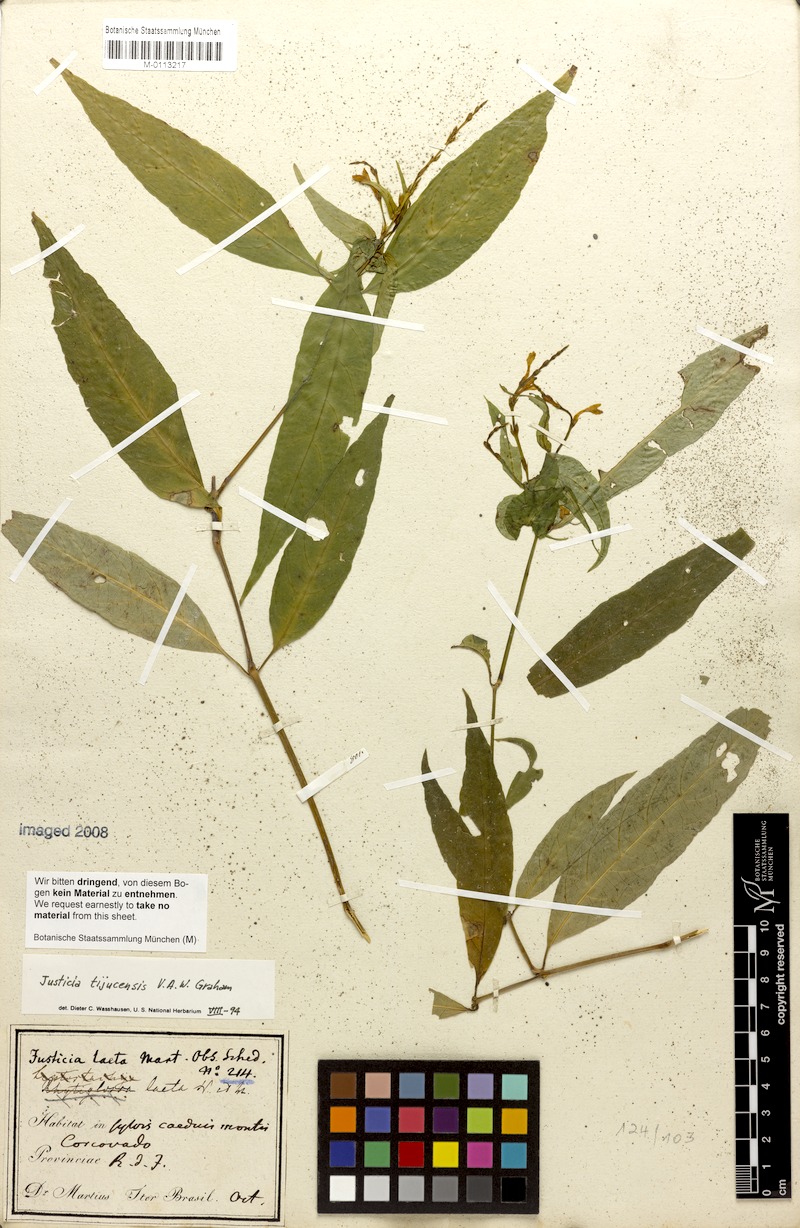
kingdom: Plantae
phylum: Tracheophyta
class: Magnoliopsida
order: Lamiales
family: Acanthaceae
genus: Dianthera
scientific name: Dianthera laeta
